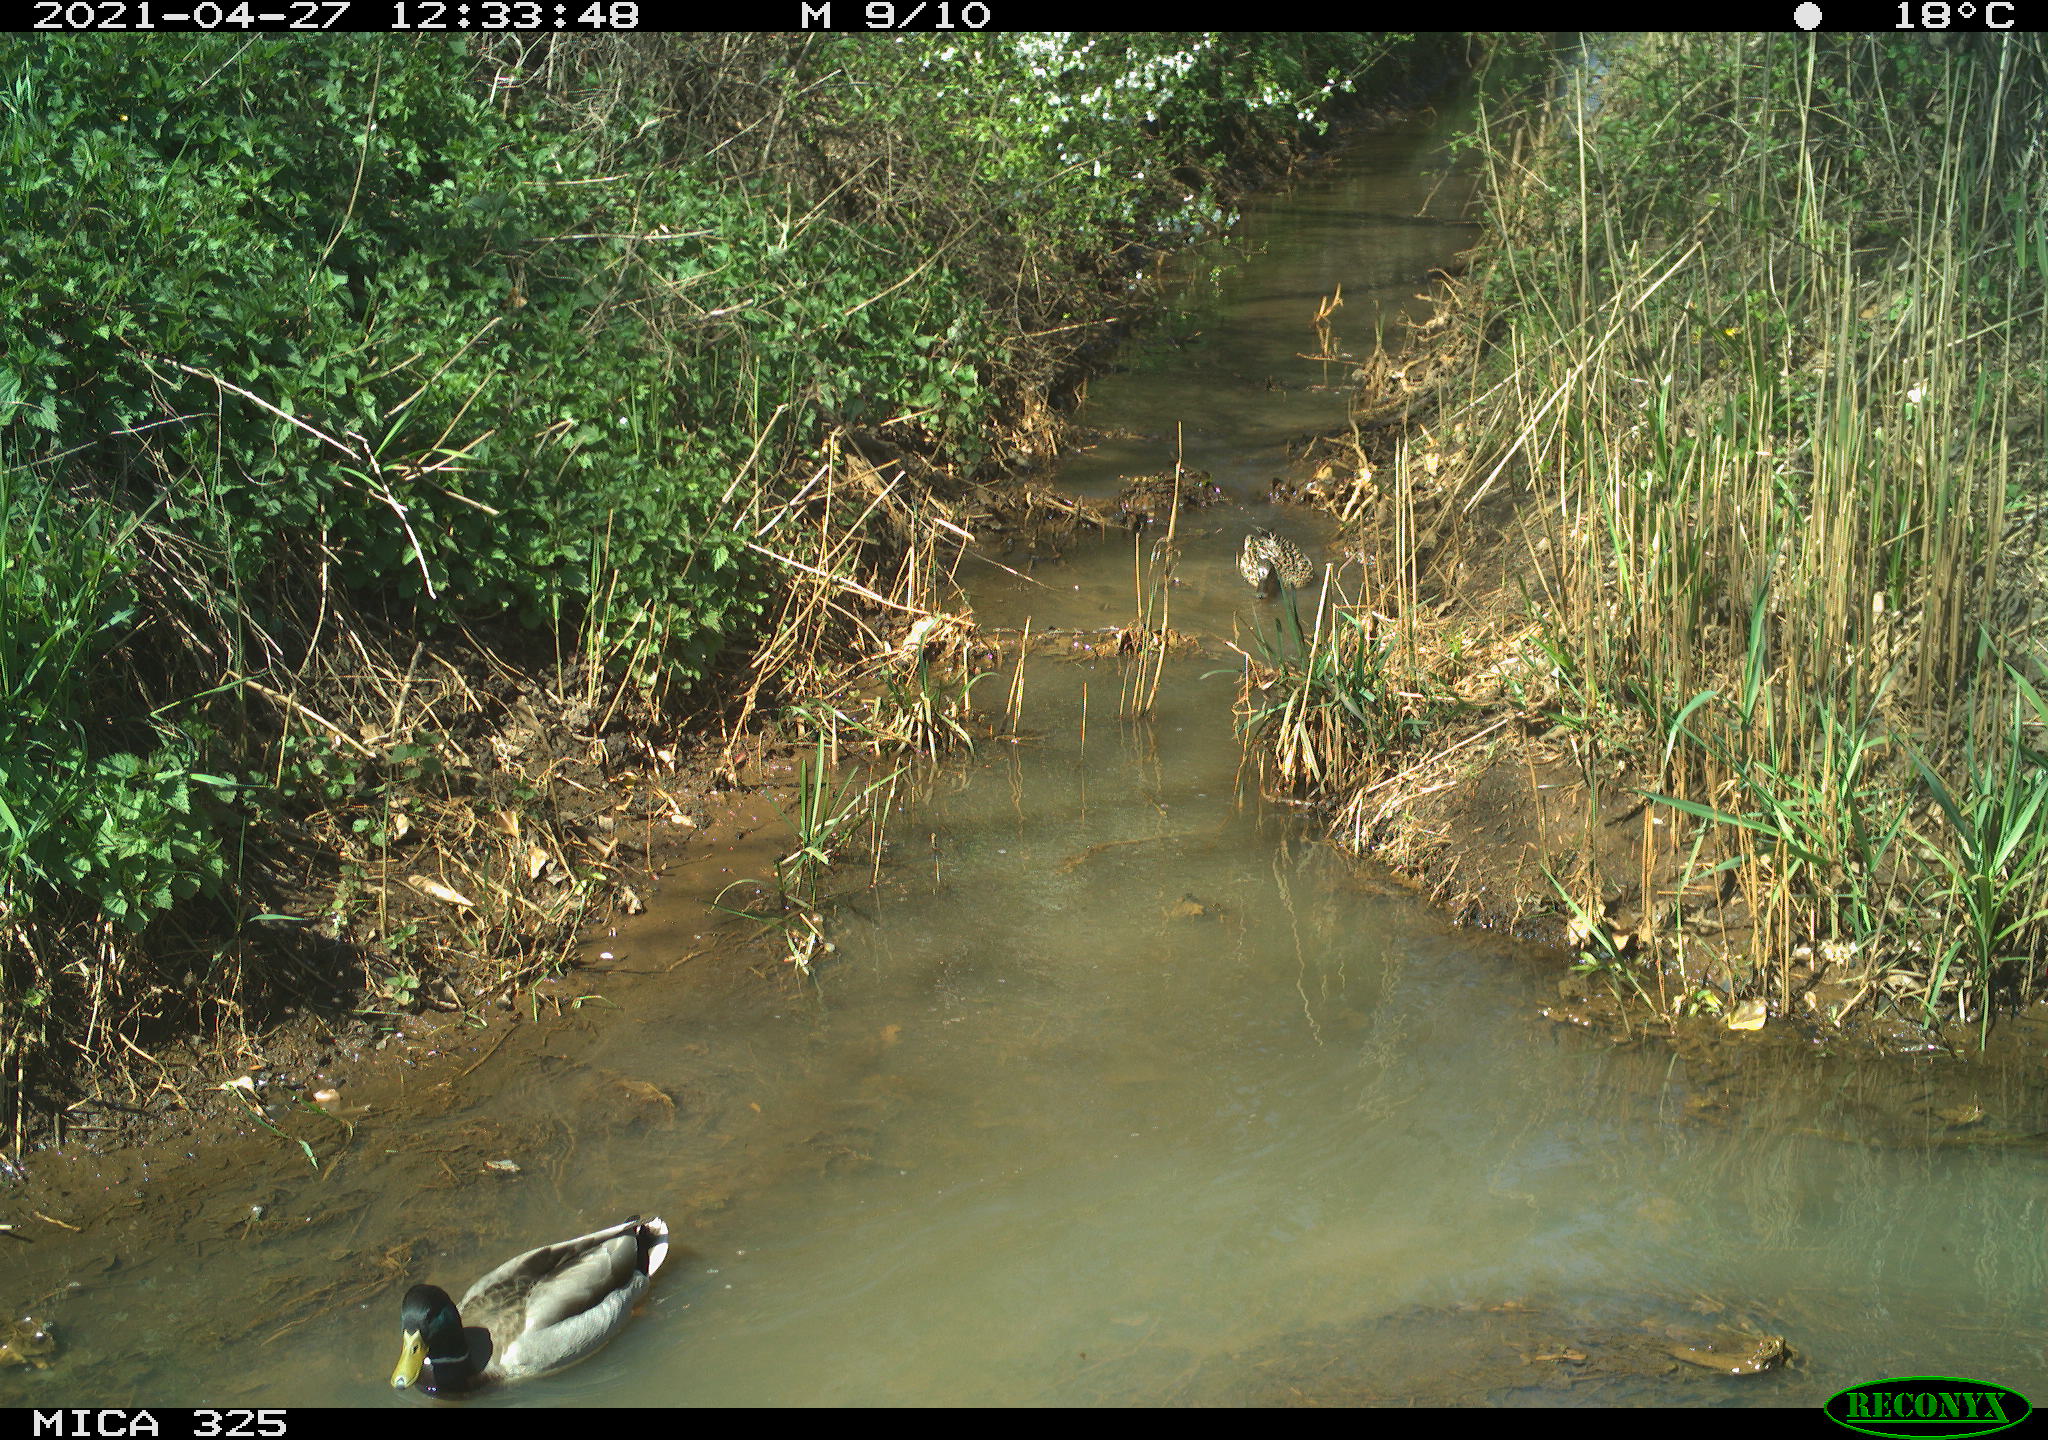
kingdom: Animalia
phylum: Chordata
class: Aves
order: Anseriformes
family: Anatidae
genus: Anas
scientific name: Anas platyrhynchos
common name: Mallard
